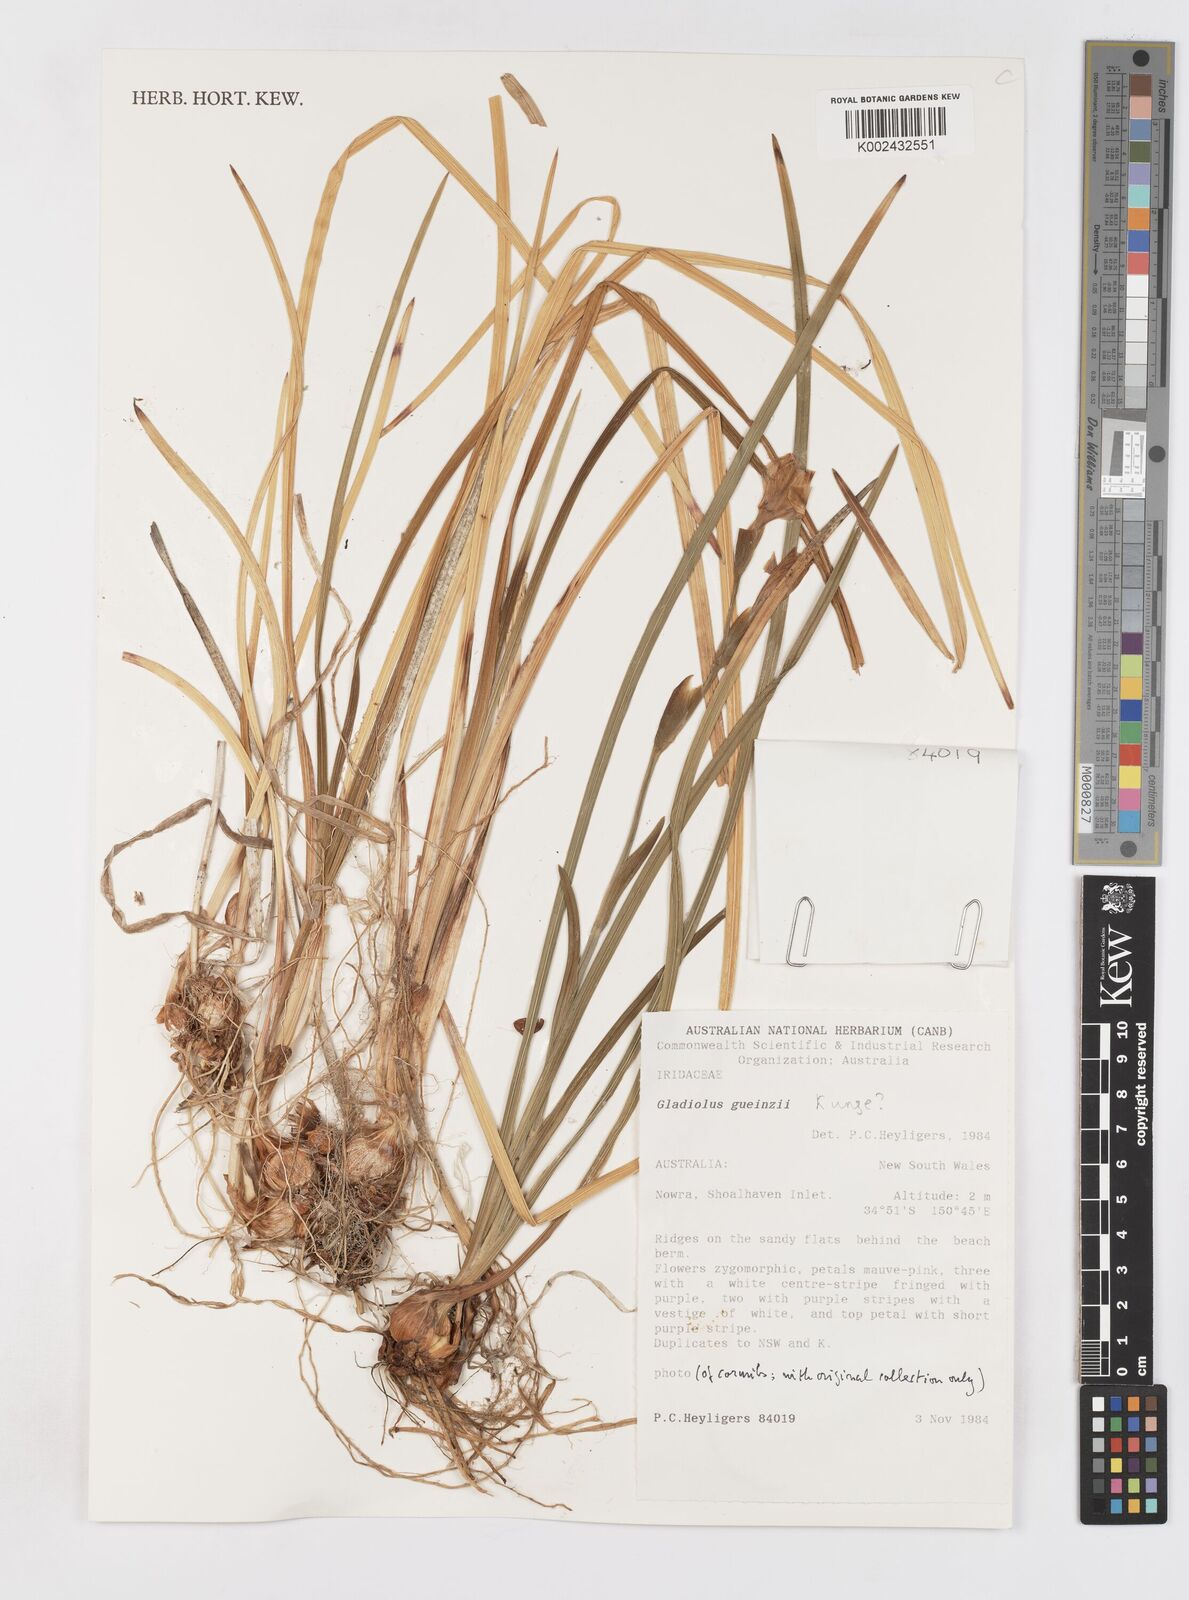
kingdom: Plantae
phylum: Tracheophyta
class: Liliopsida
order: Asparagales
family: Iridaceae
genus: Gladiolus
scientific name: Gladiolus gueinzii
